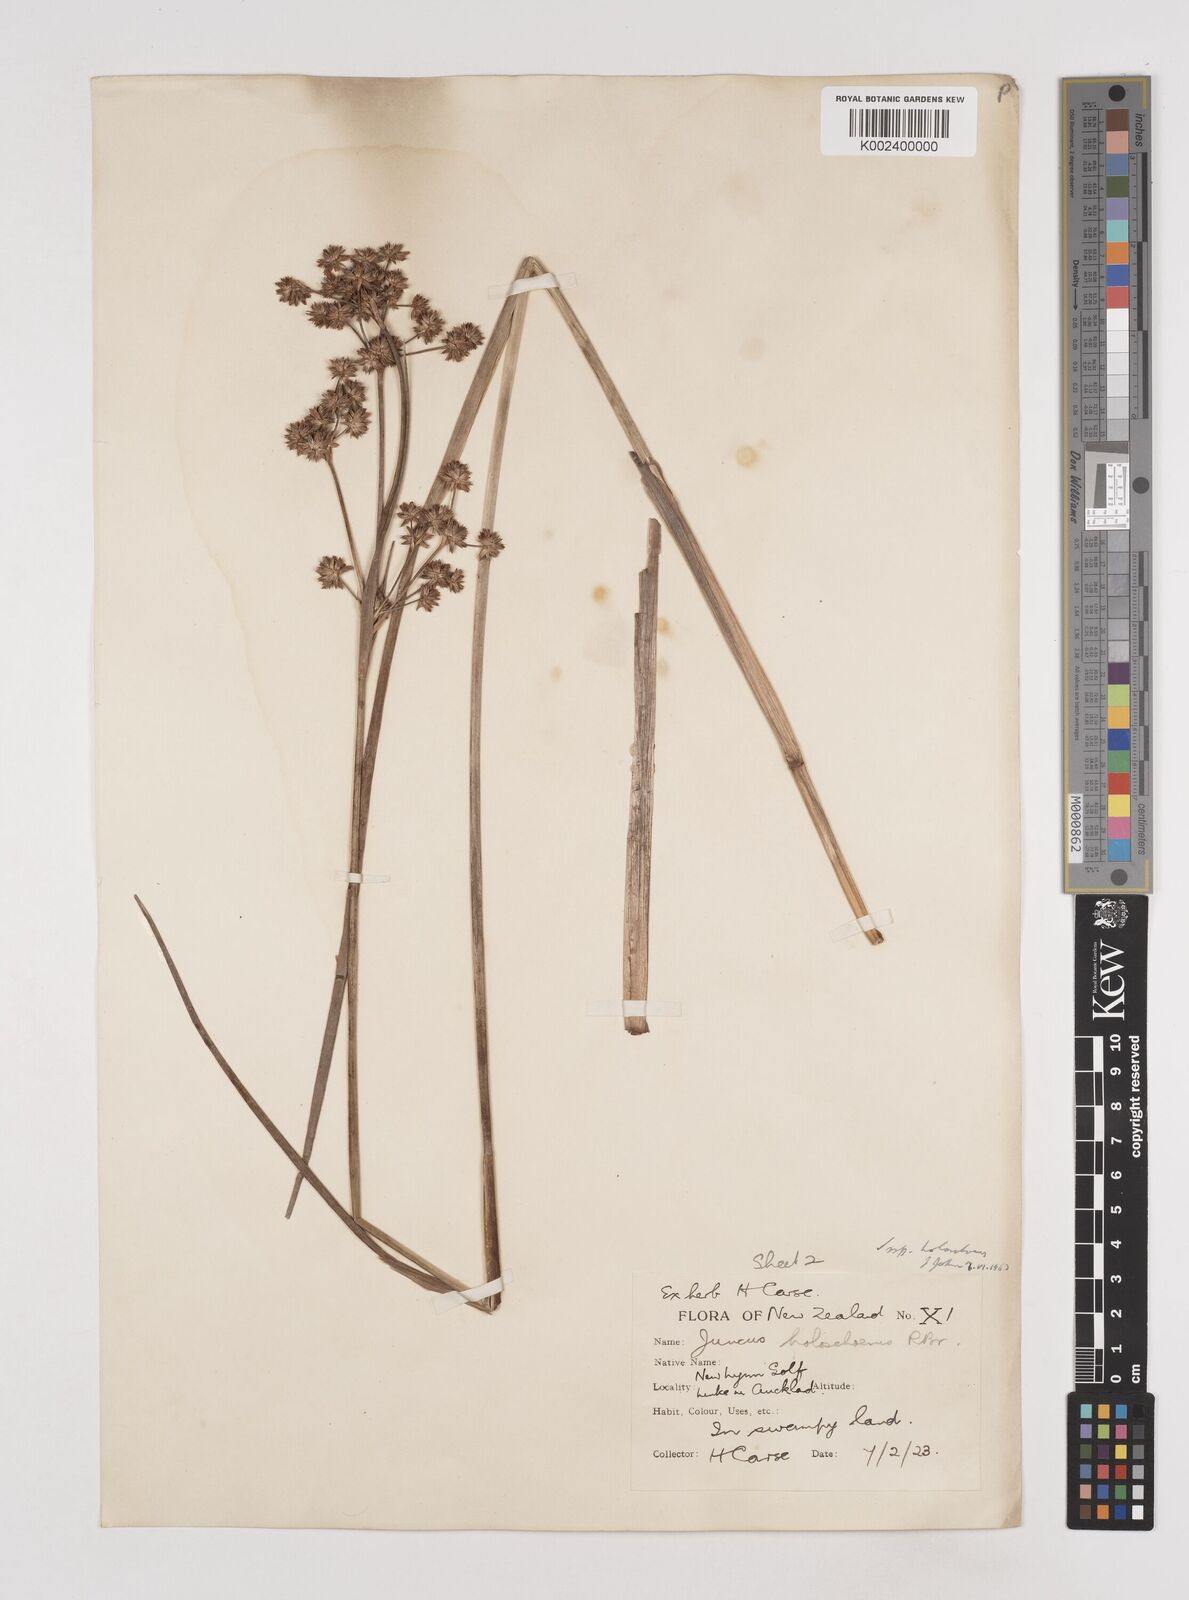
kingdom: Plantae
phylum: Tracheophyta
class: Liliopsida
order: Poales
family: Juncaceae
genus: Juncus
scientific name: Juncus holoschoenus
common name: Joint-leaf rush
